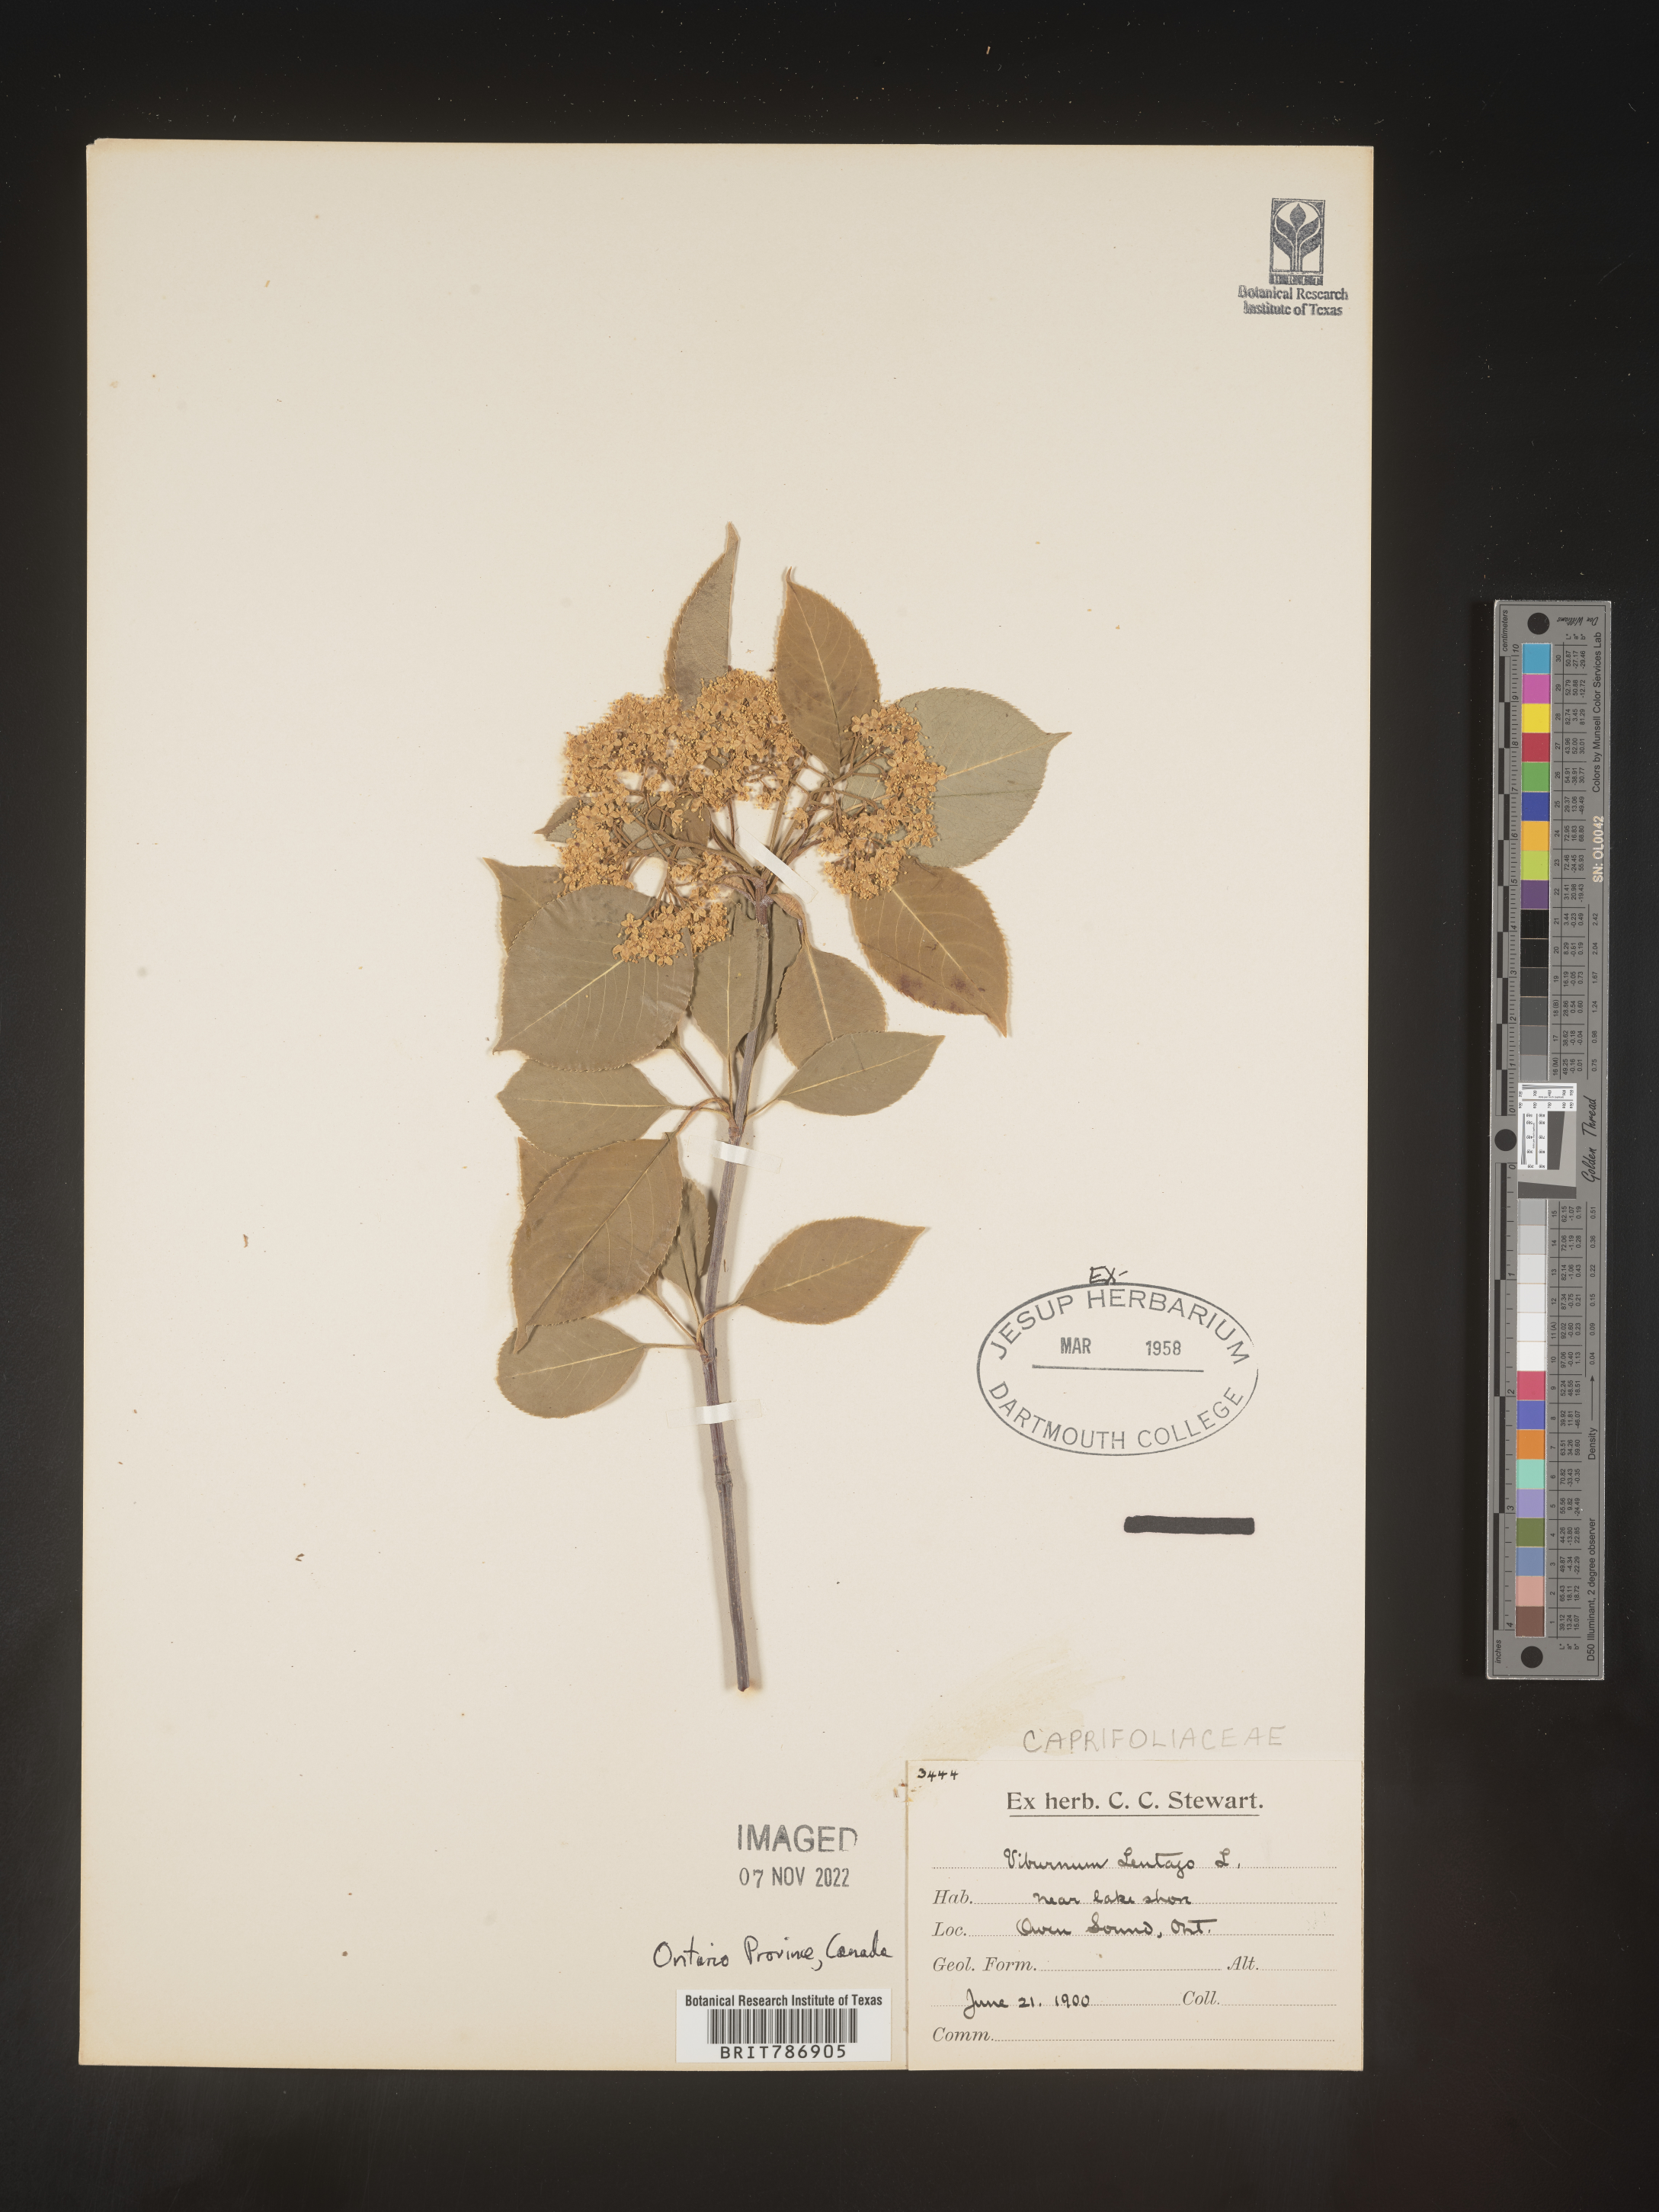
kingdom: Plantae
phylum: Tracheophyta
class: Magnoliopsida
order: Dipsacales
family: Viburnaceae
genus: Viburnum
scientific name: Viburnum lentago
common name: Black haw
